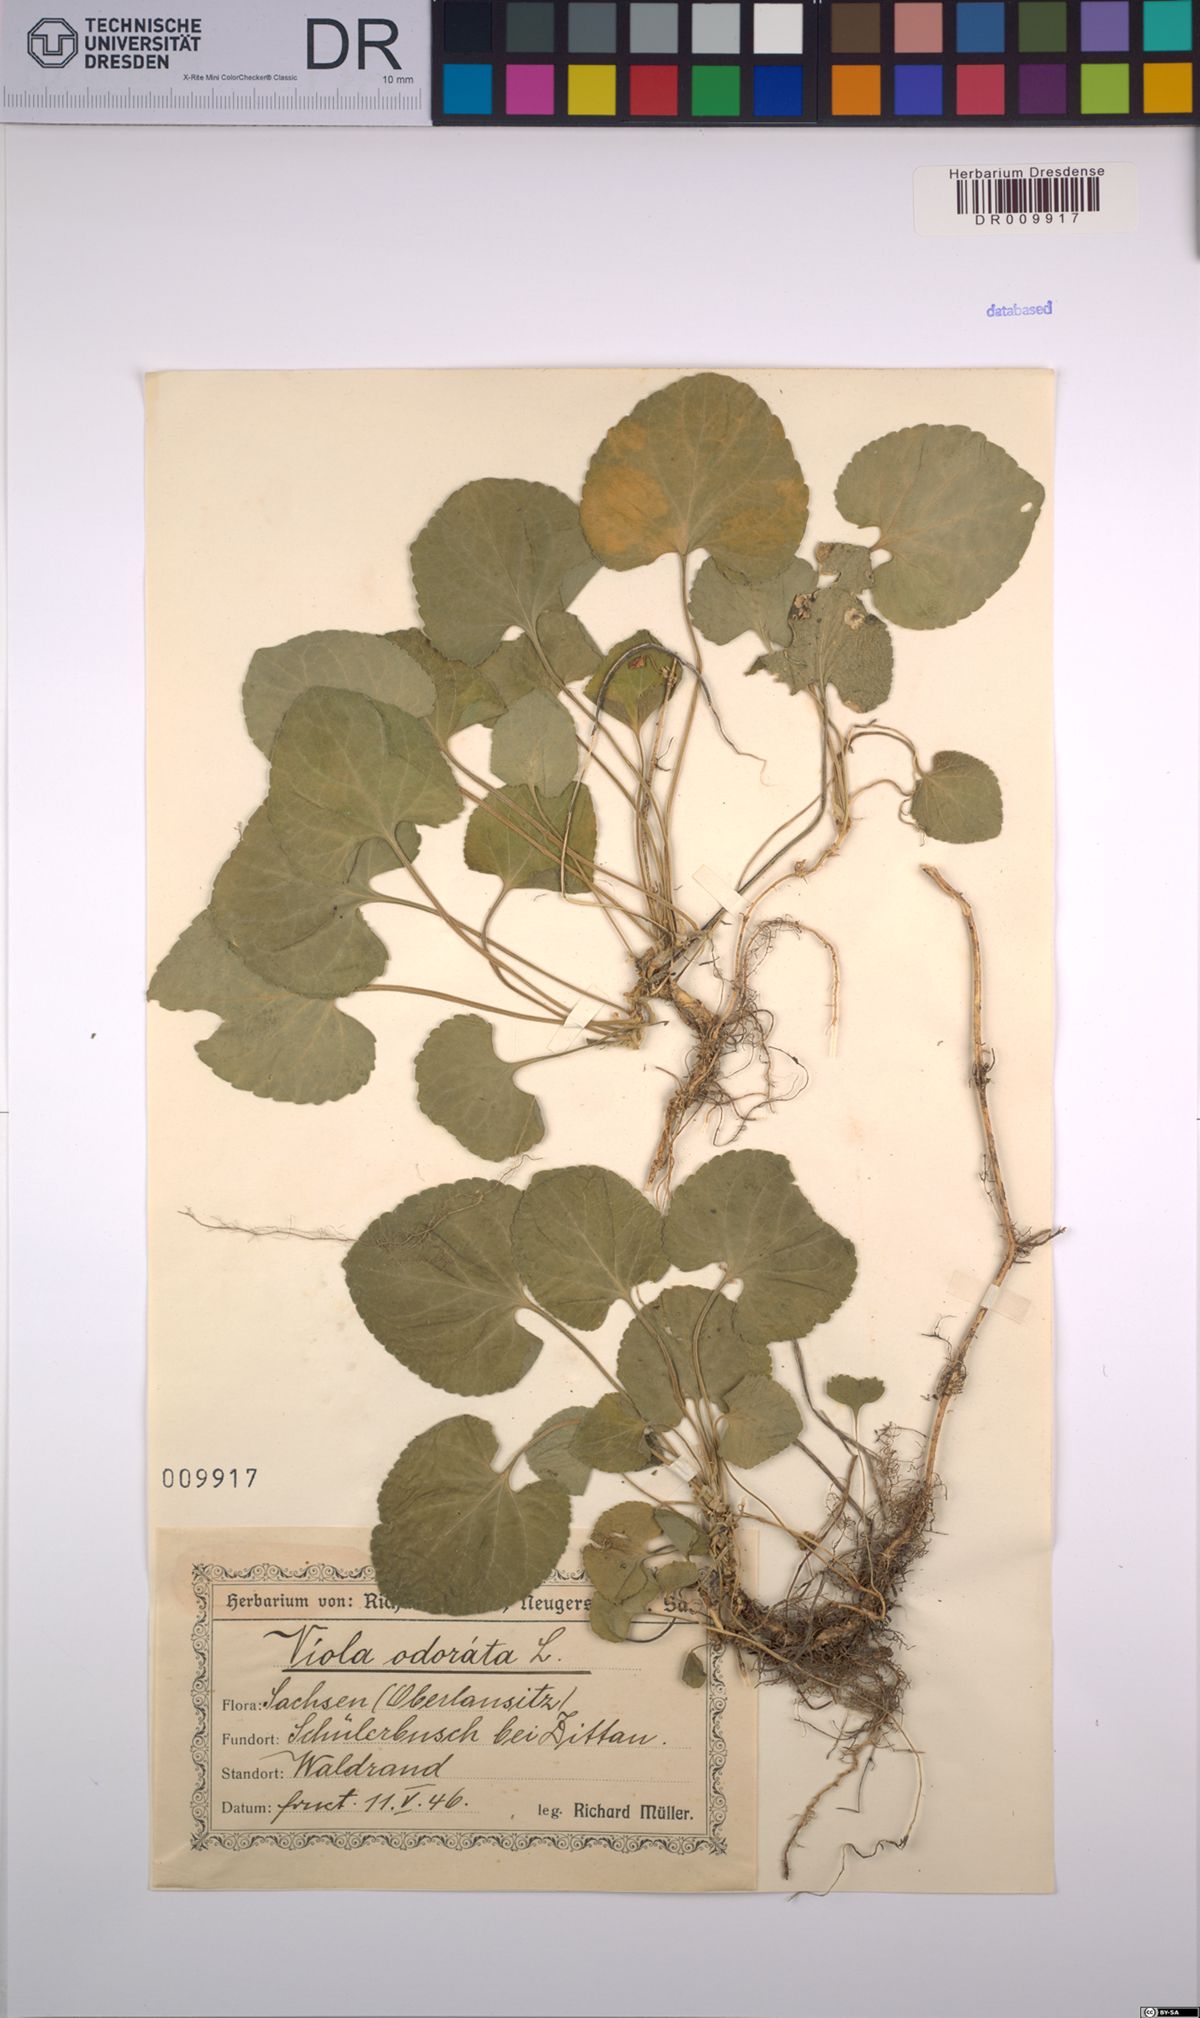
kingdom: Plantae
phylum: Tracheophyta
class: Magnoliopsida
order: Malpighiales
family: Violaceae
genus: Viola
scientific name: Viola odorata
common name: Sweet violet
